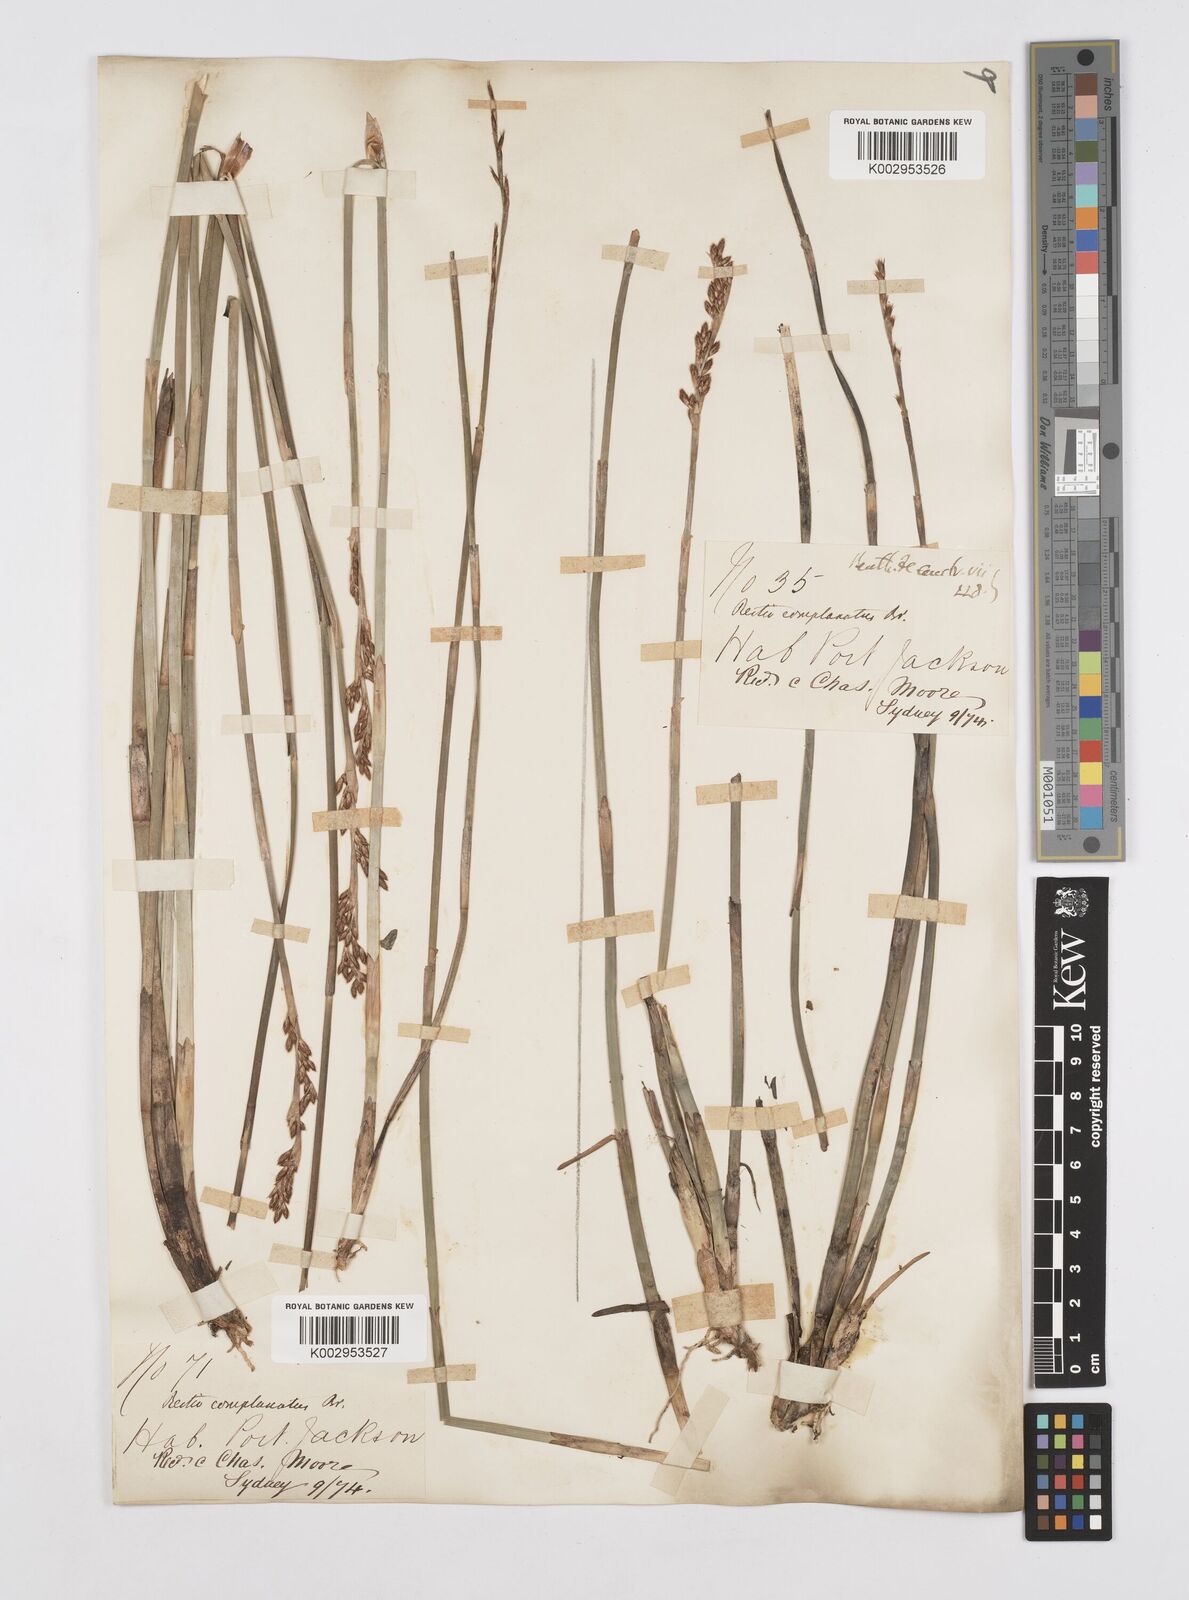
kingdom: Plantae
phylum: Tracheophyta
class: Liliopsida
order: Poales
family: Restionaceae
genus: Eurychorda
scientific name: Eurychorda complanata
